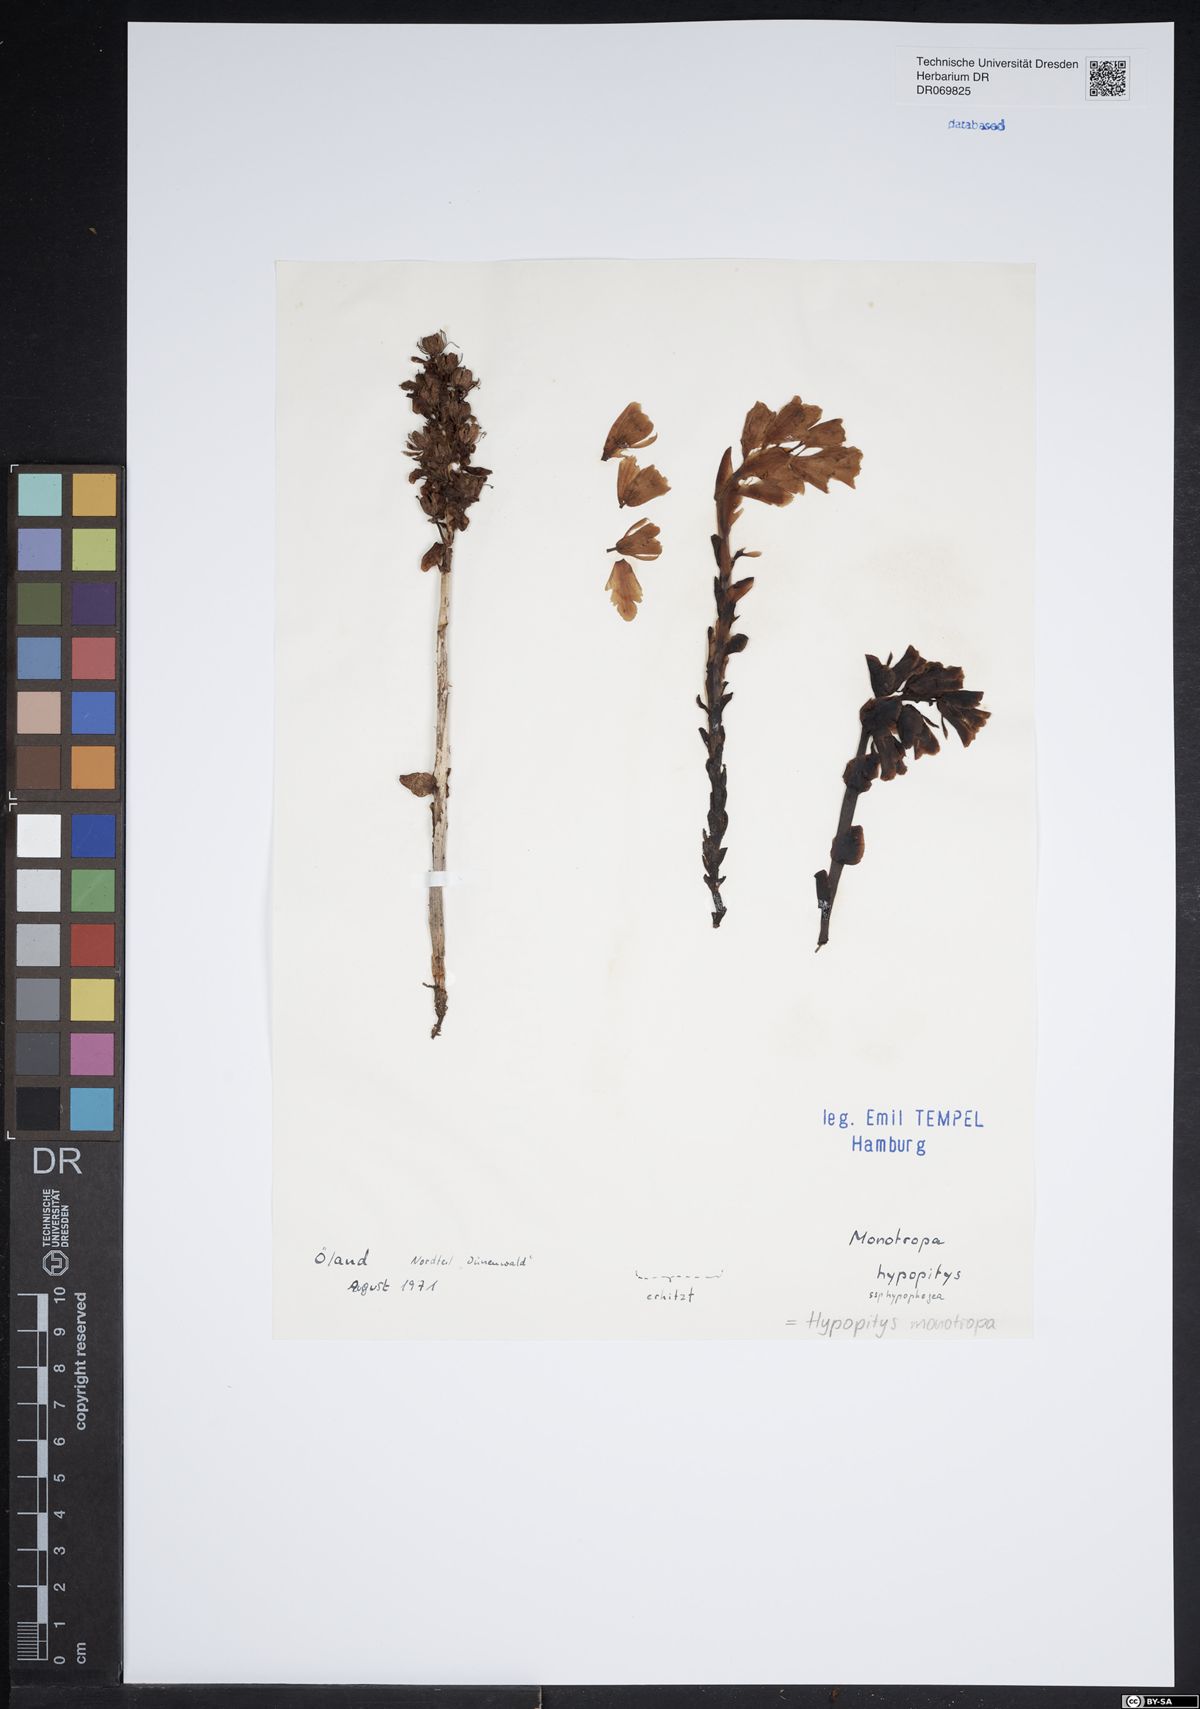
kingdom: Plantae
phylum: Tracheophyta
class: Magnoliopsida
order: Ericales
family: Ericaceae
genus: Hypopitys
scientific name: Hypopitys monotropa
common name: Yellow bird's-nest
